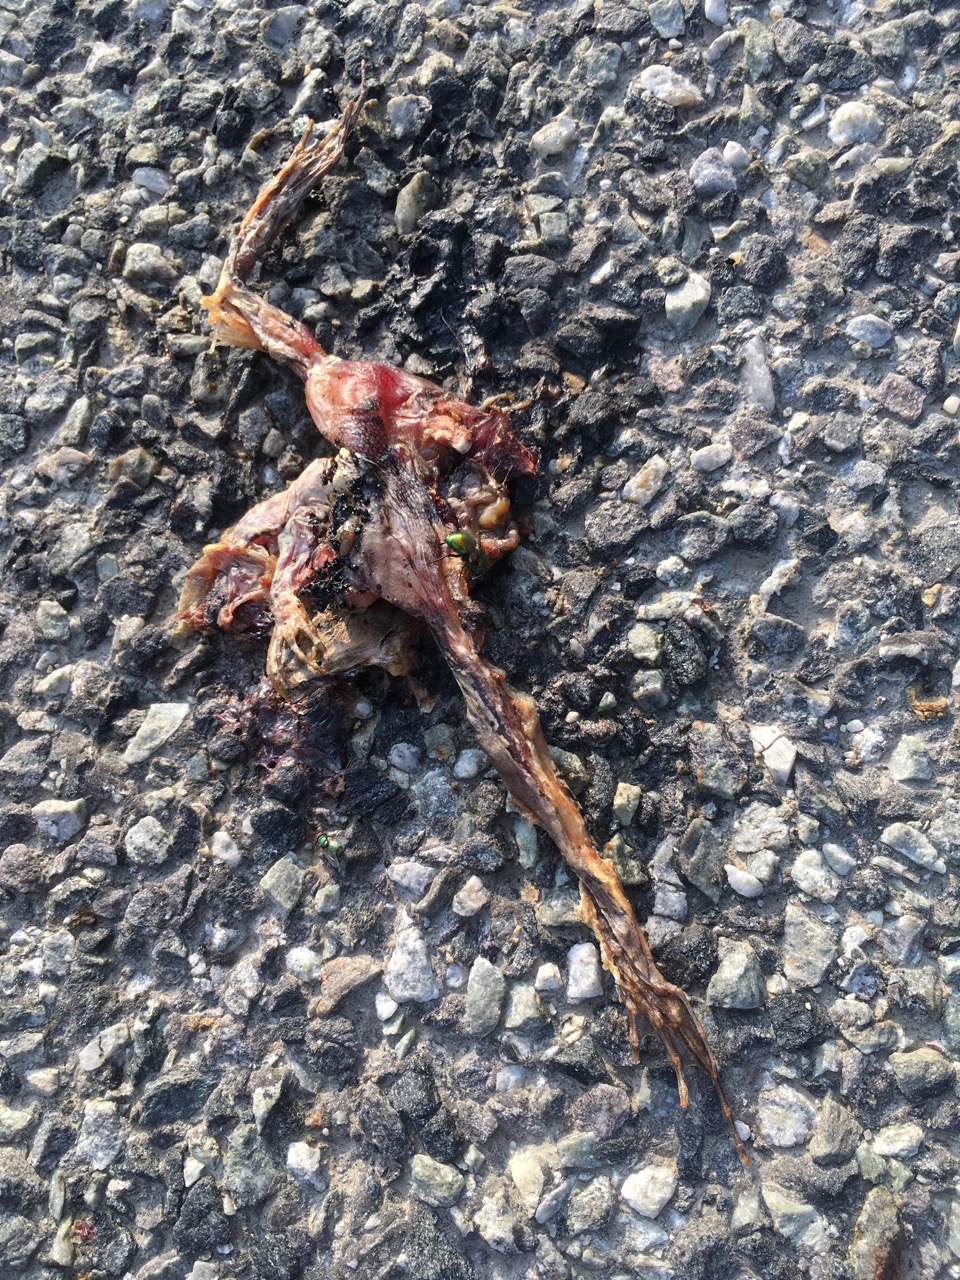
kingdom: Animalia
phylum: Chordata
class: Amphibia
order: Anura
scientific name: Anura
